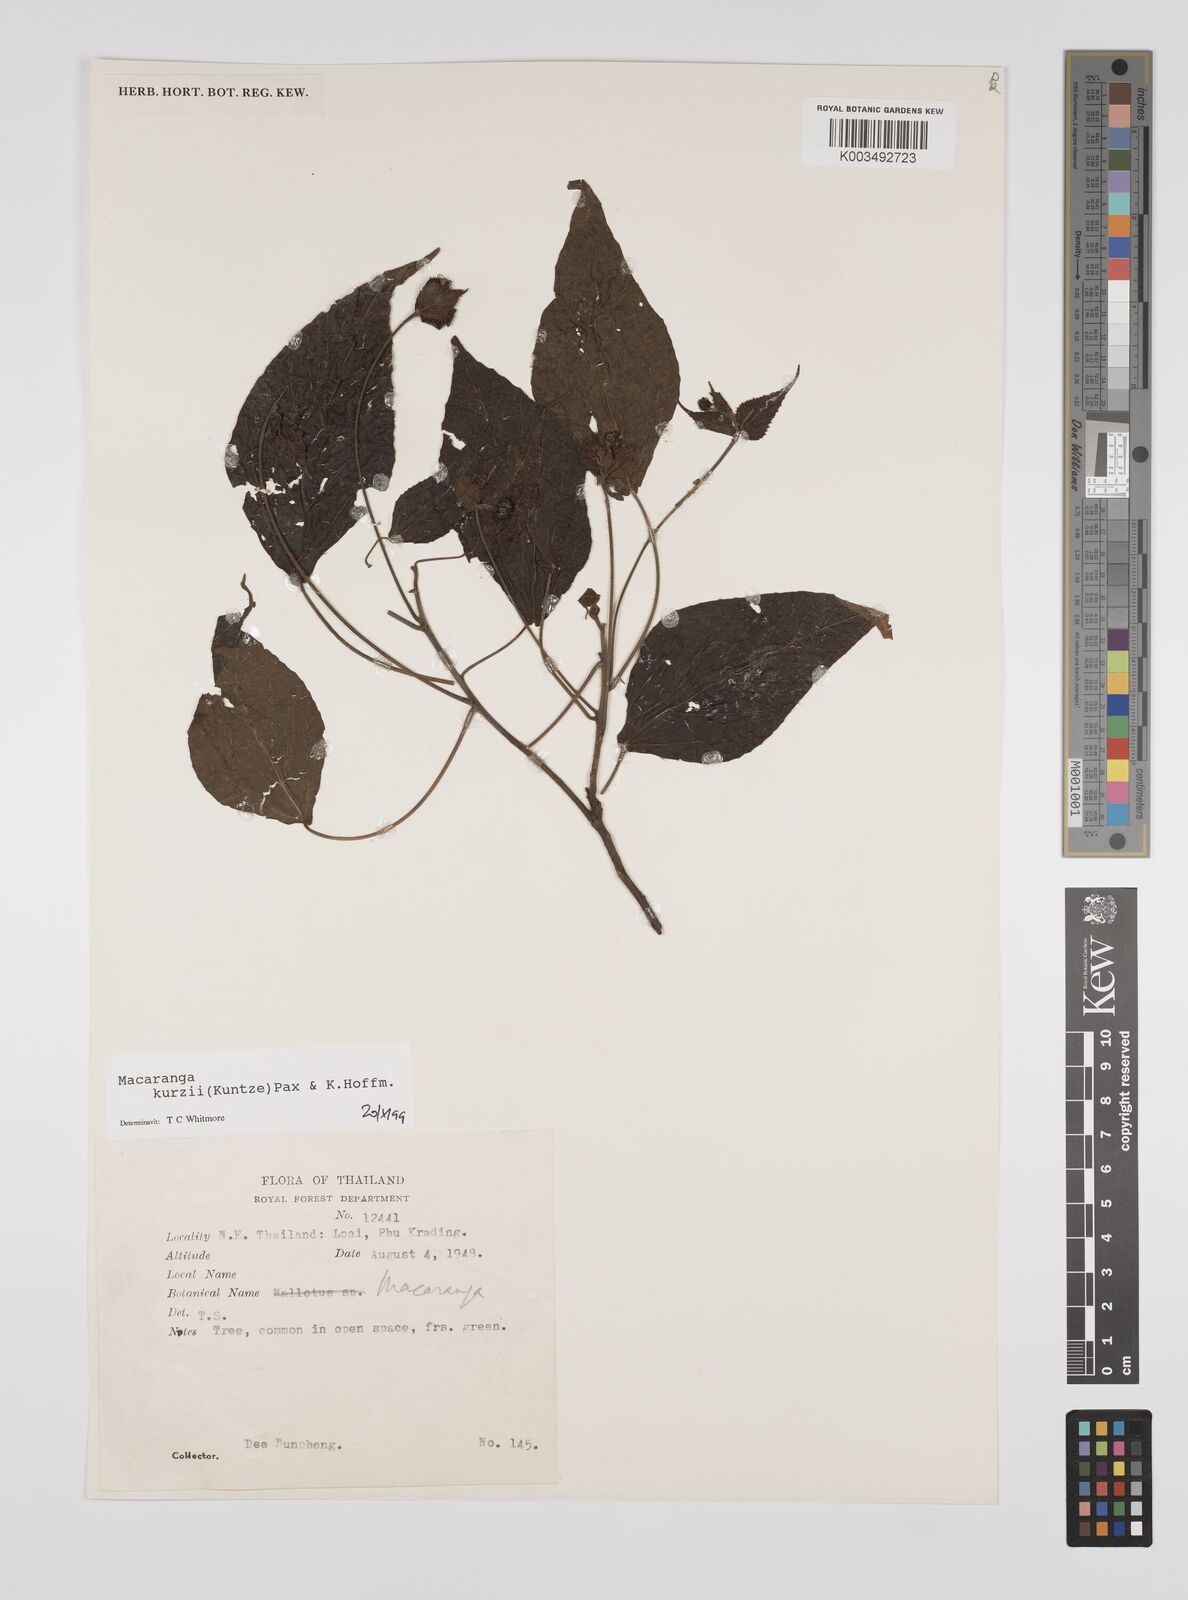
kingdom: Plantae
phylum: Tracheophyta
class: Magnoliopsida
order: Malpighiales
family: Euphorbiaceae
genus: Macaranga
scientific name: Macaranga kurzii
